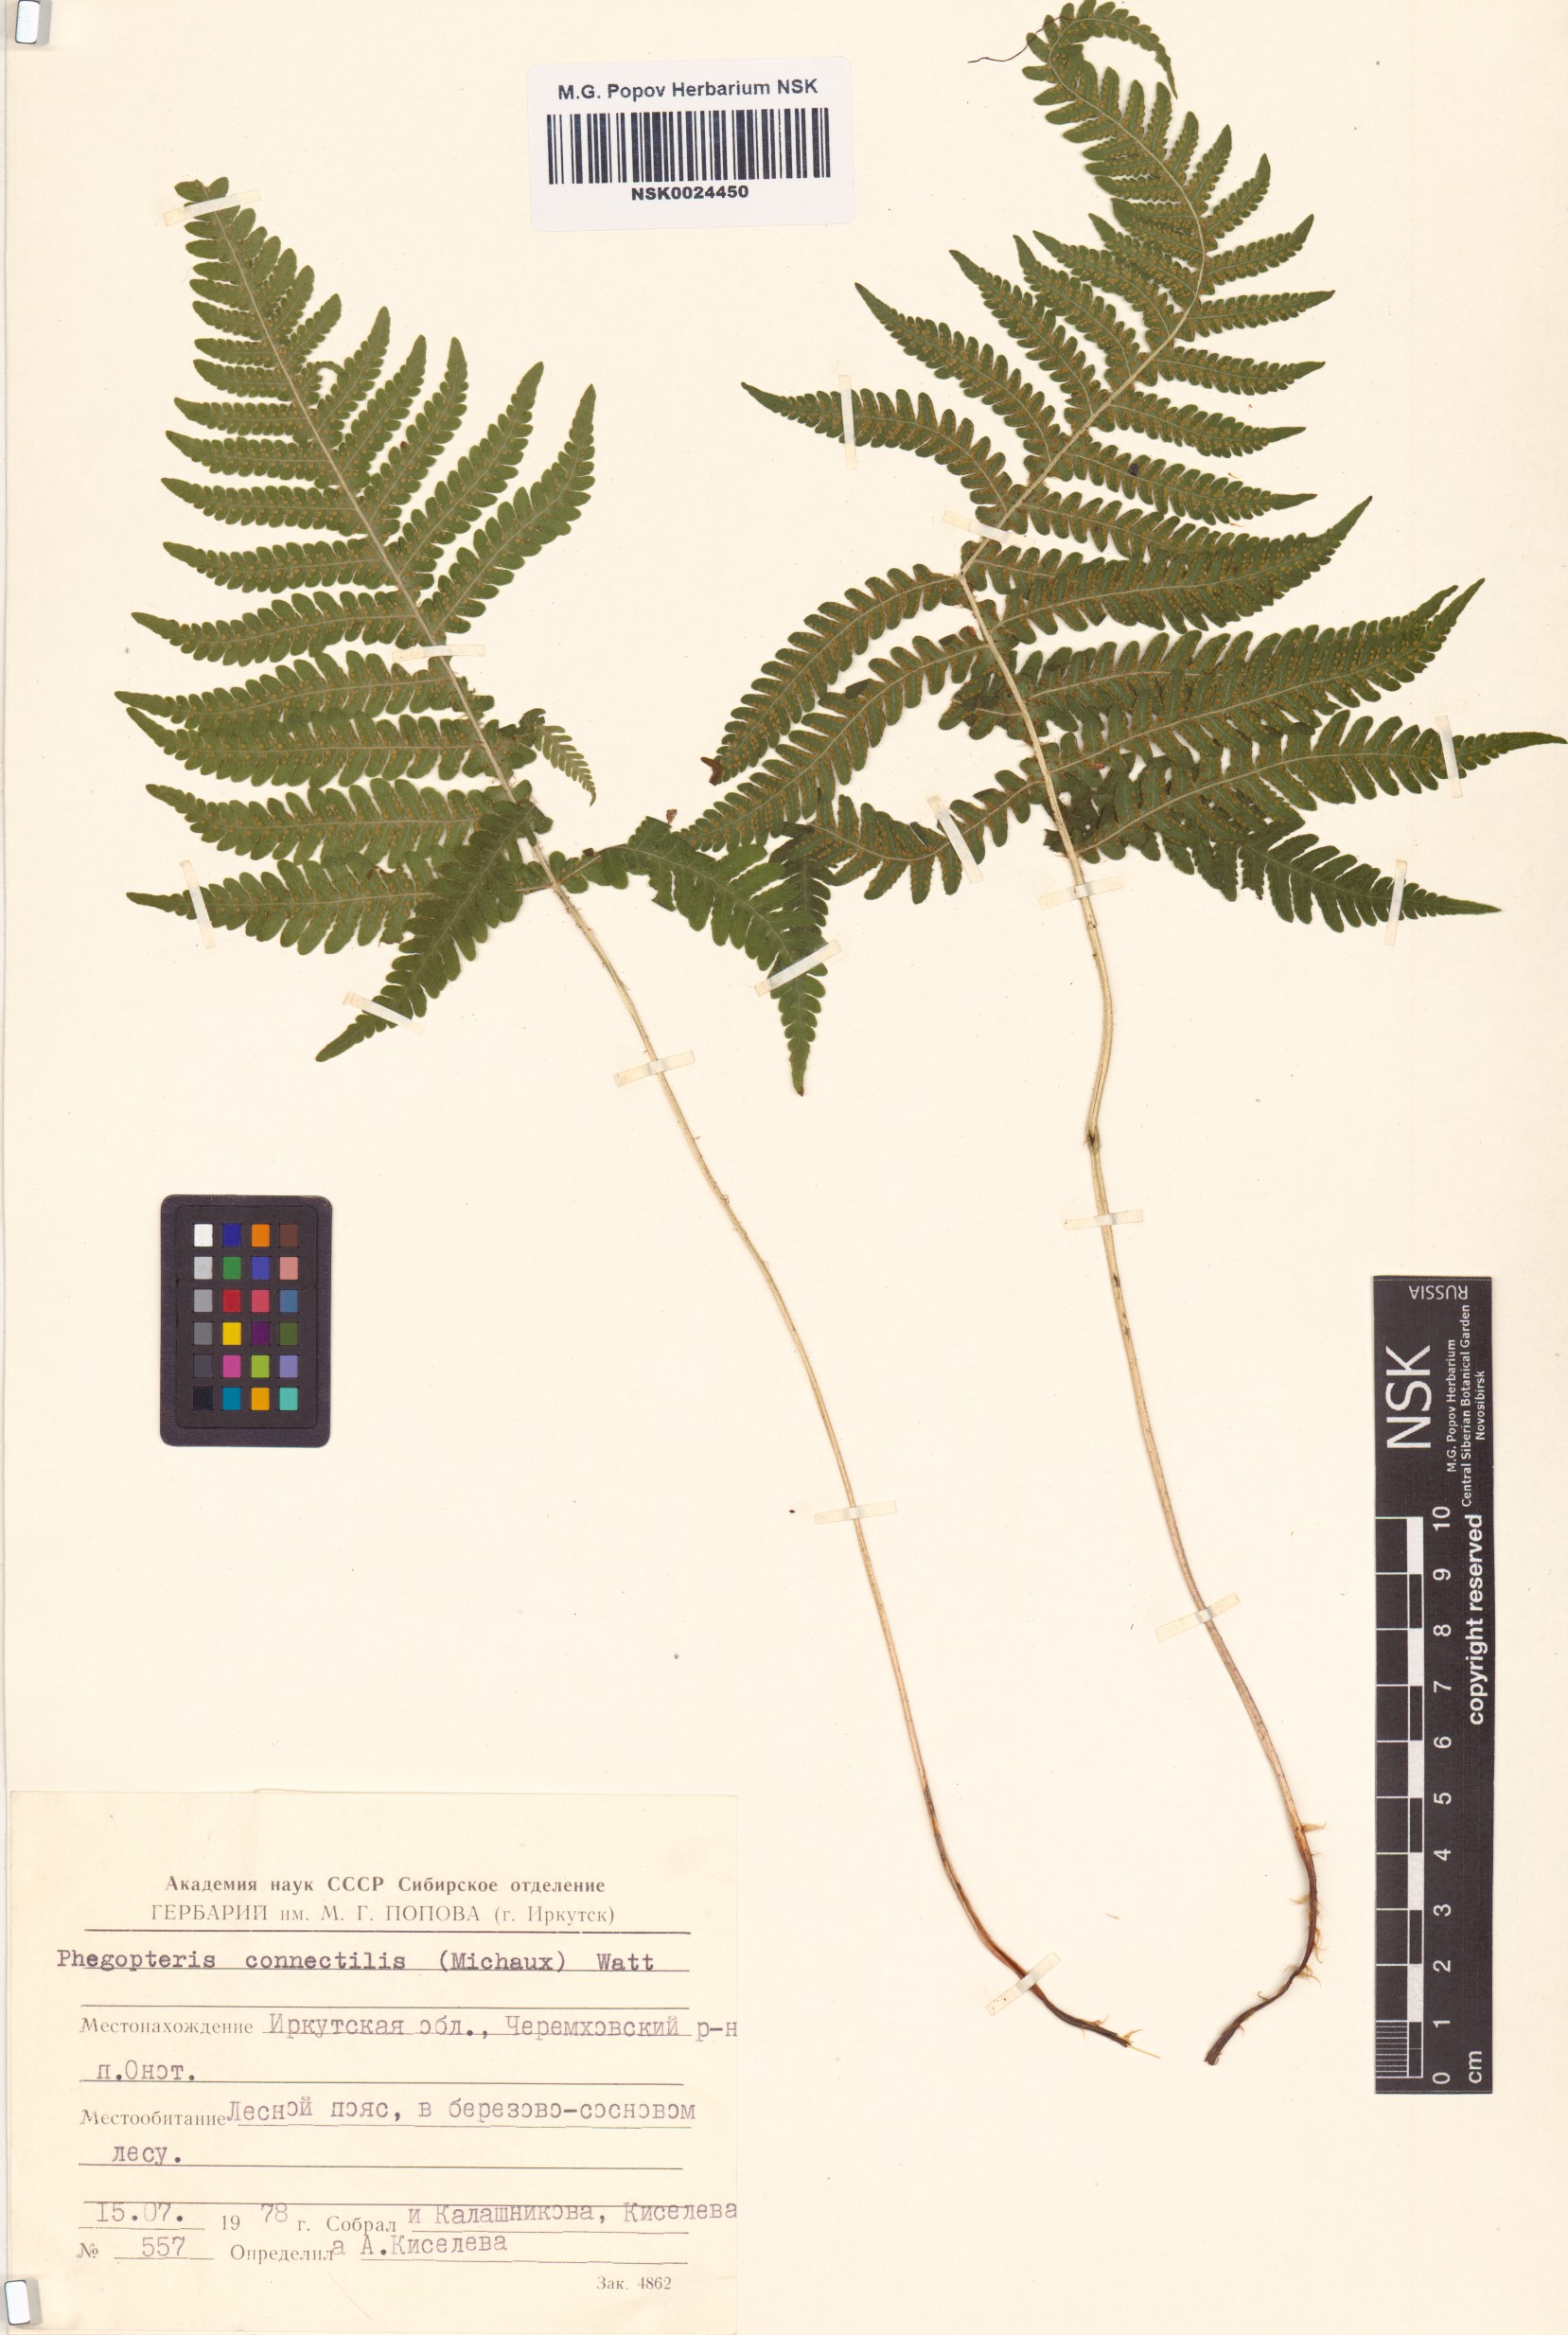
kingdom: Plantae
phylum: Tracheophyta
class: Polypodiopsida
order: Polypodiales
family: Thelypteridaceae
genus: Phegopteris
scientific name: Phegopteris connectilis
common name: Beech fern
